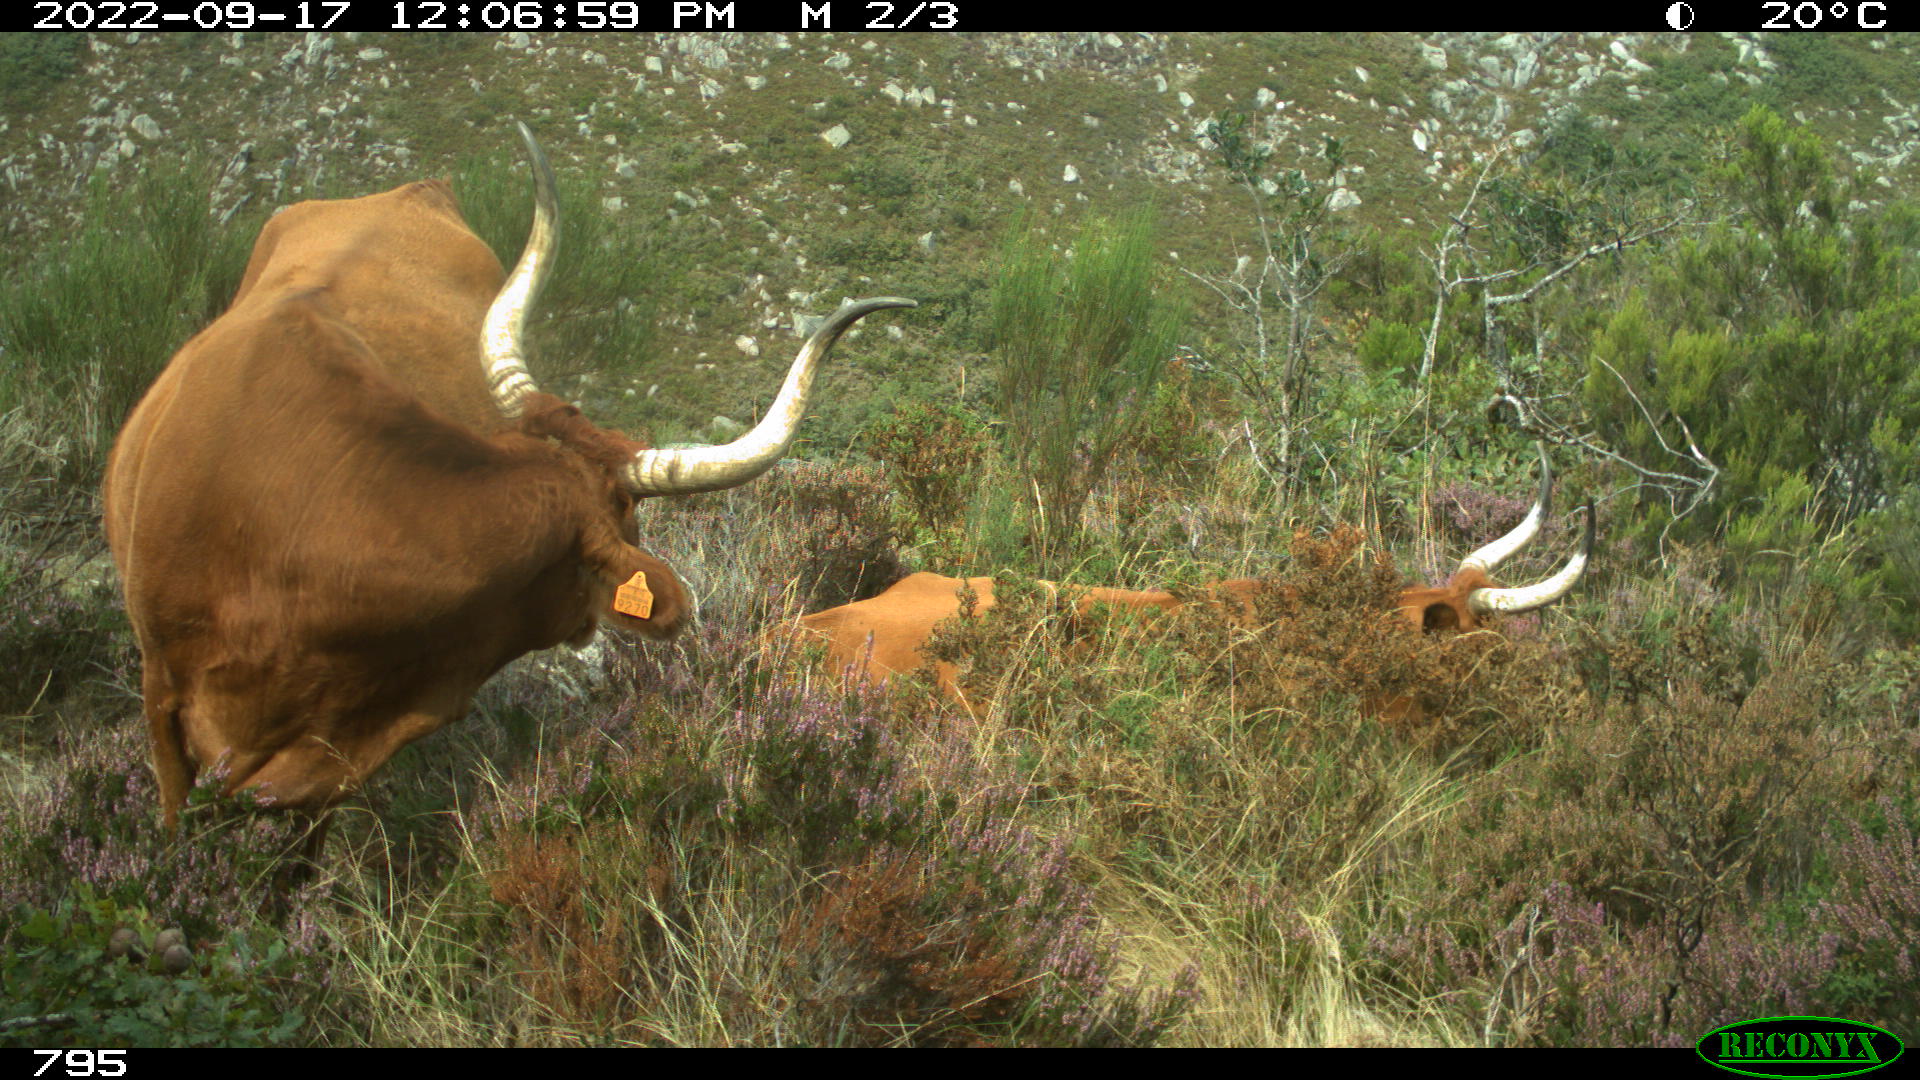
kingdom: Animalia
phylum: Chordata
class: Mammalia
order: Artiodactyla
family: Bovidae
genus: Bos
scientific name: Bos taurus
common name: Domesticated cattle
